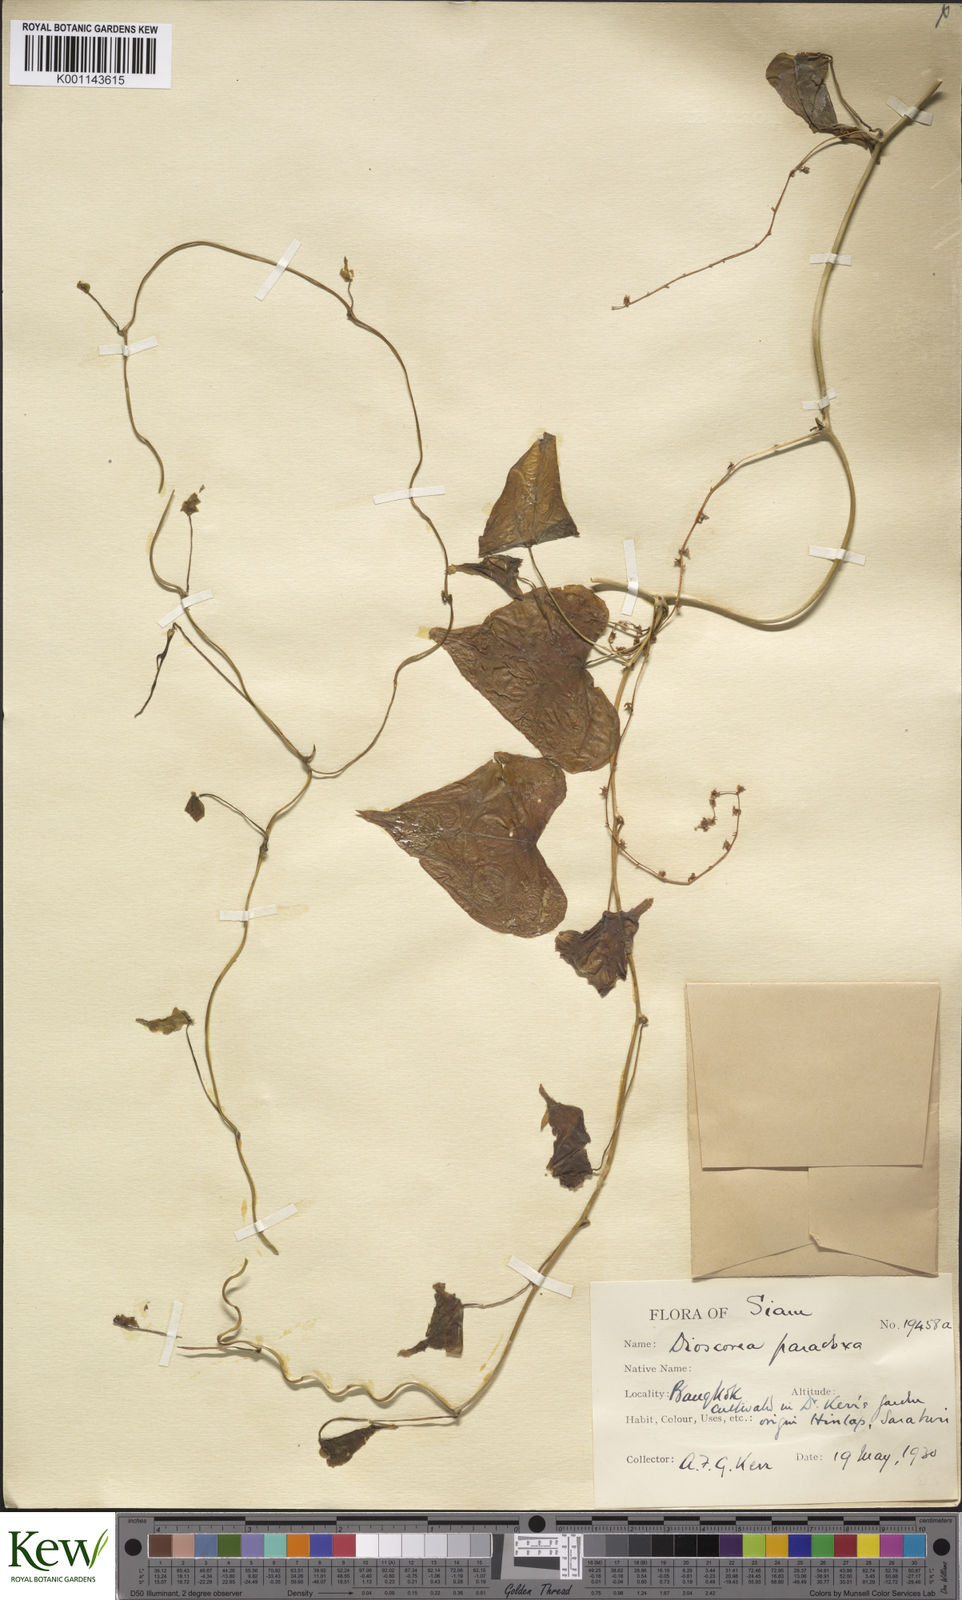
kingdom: Plantae
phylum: Tracheophyta
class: Liliopsida
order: Dioscoreales
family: Dioscoreaceae
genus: Dioscorea
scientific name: Dioscorea paradoxa
